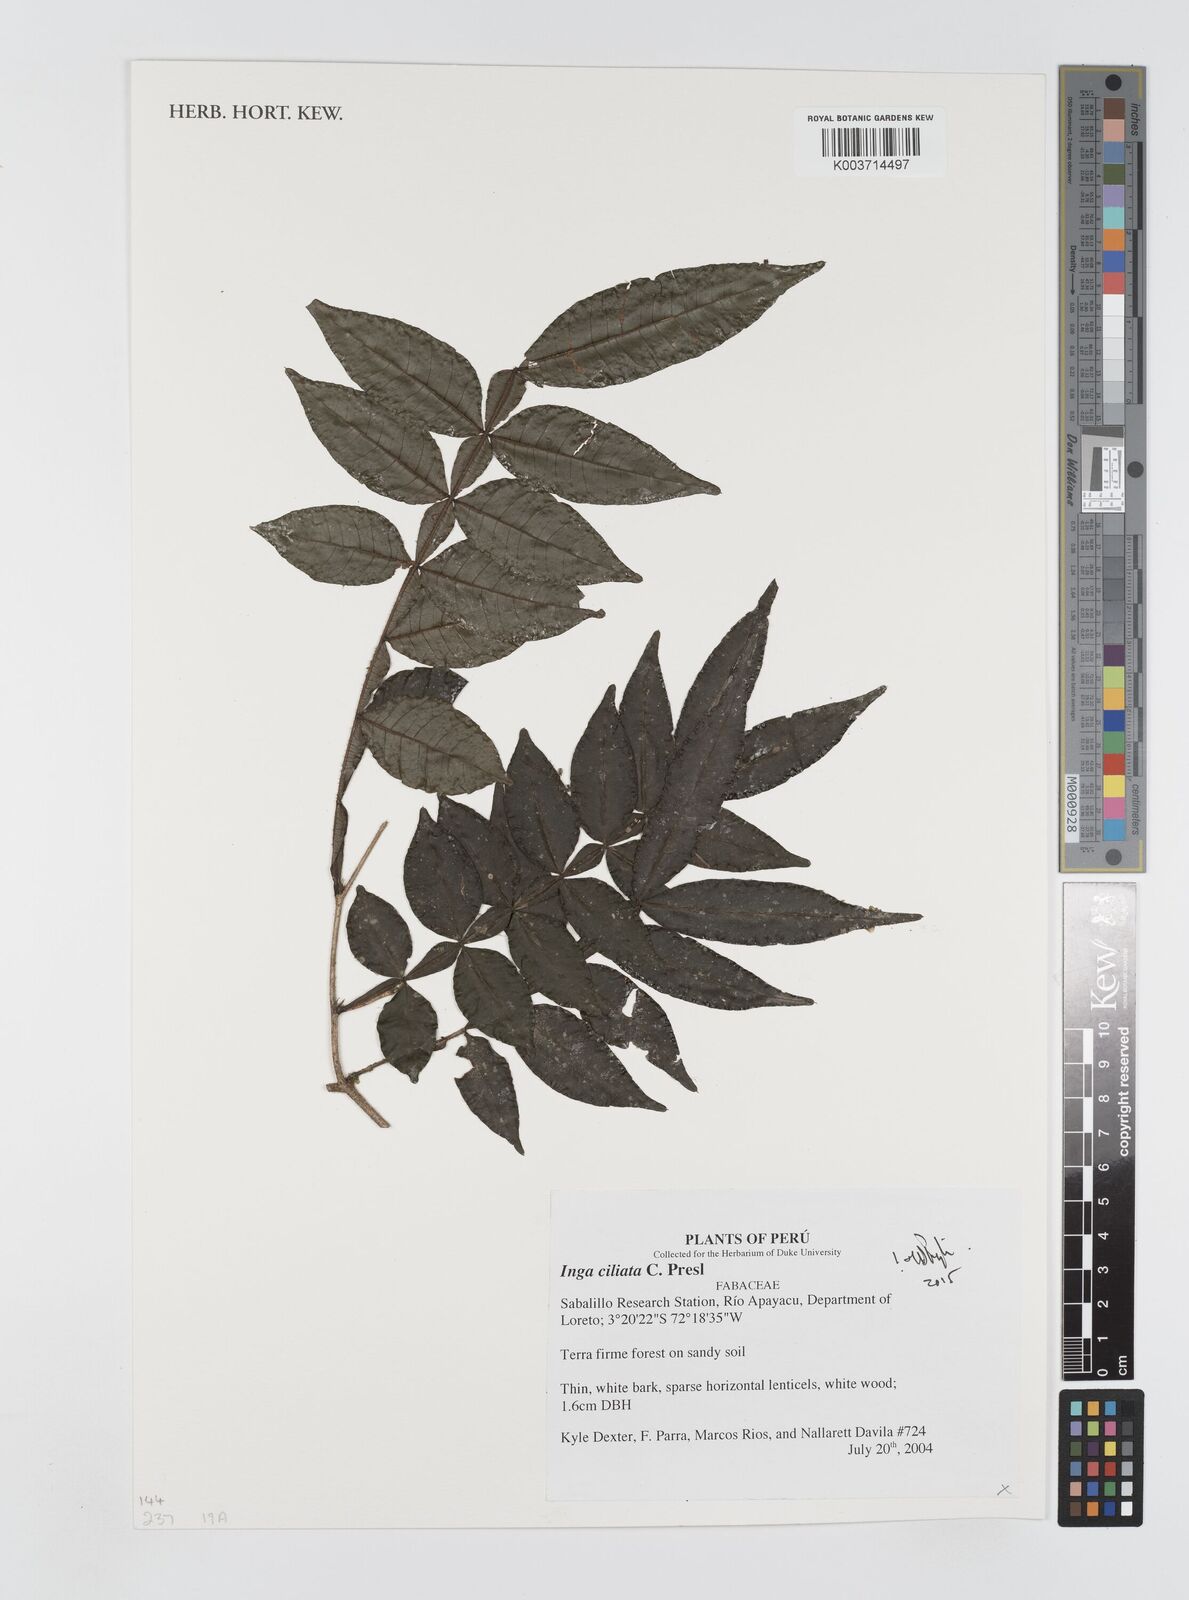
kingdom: Plantae
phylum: Tracheophyta
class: Magnoliopsida
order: Fabales
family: Fabaceae
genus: Inga
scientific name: Inga
